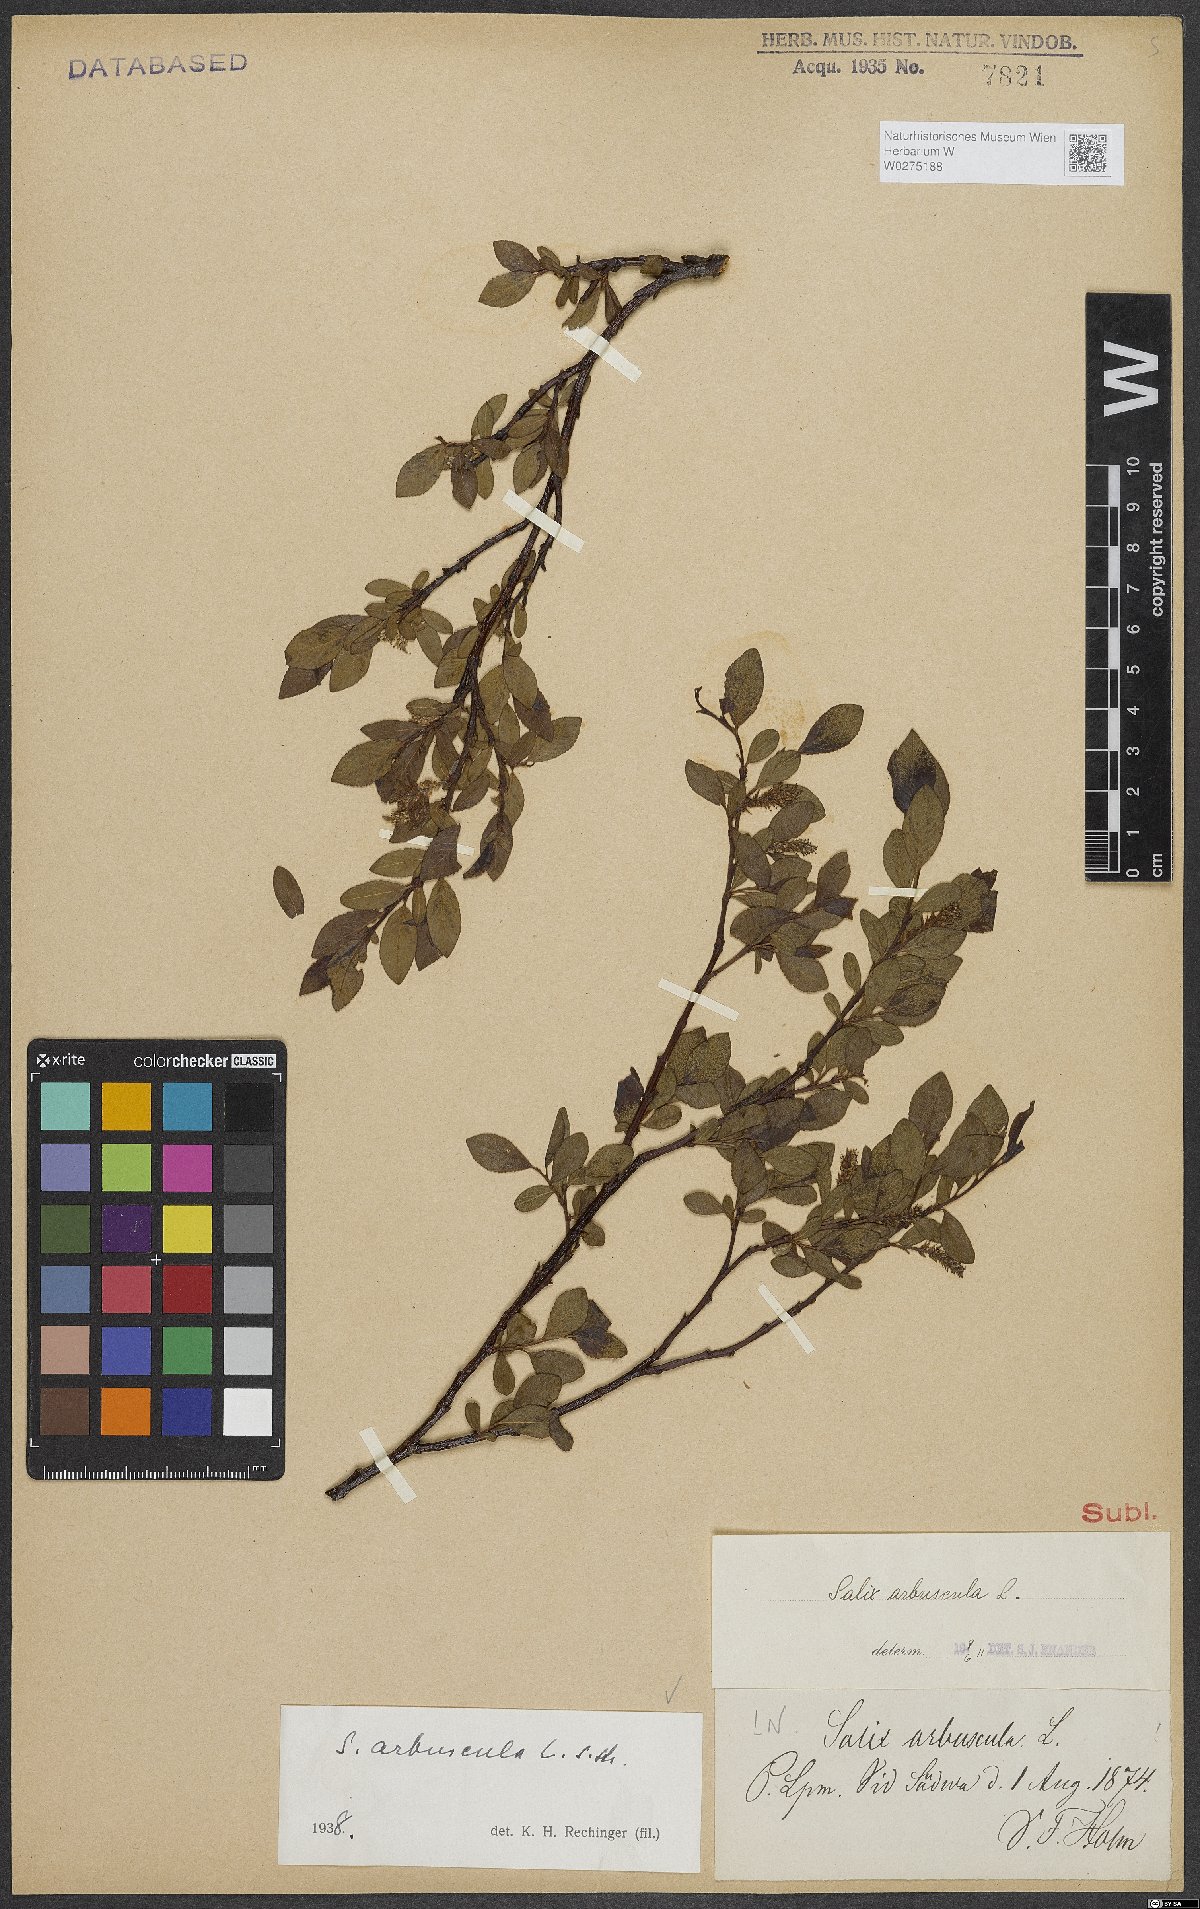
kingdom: Plantae
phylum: Tracheophyta
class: Magnoliopsida
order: Malpighiales
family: Salicaceae
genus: Salix
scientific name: Salix arbuscula
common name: Mountain willow
